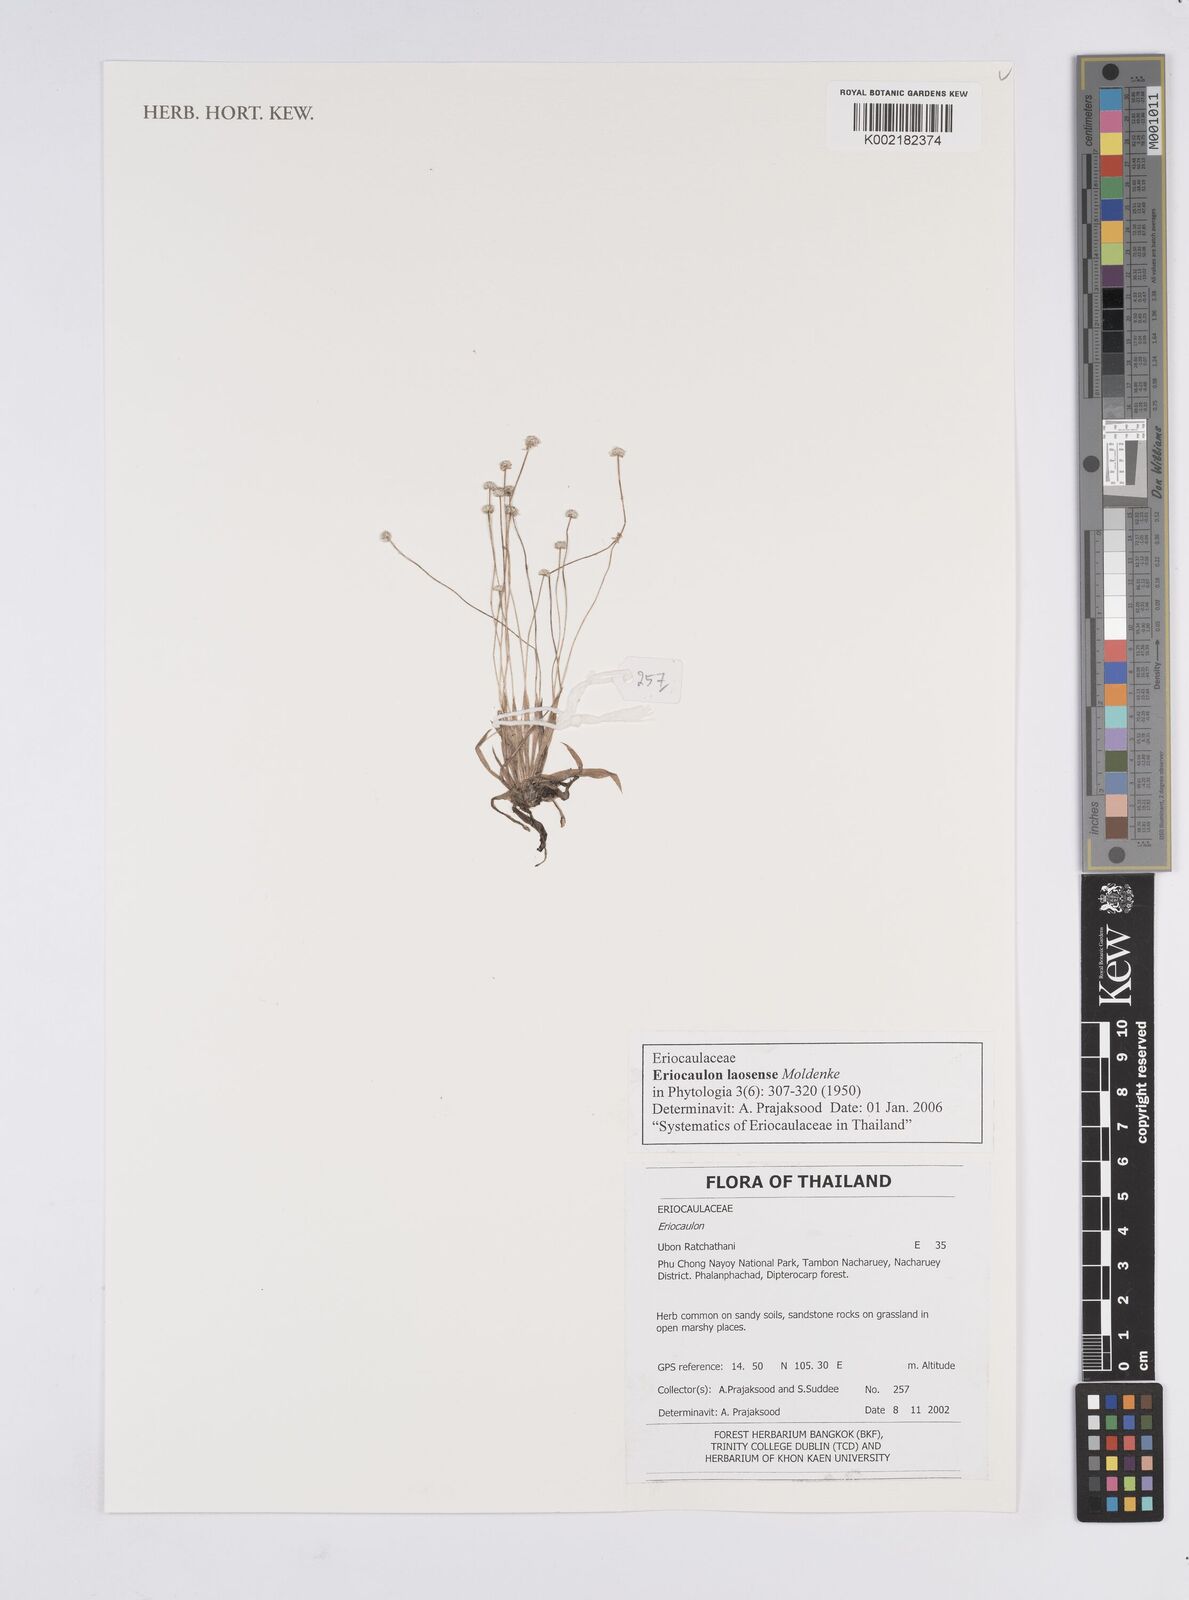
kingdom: Plantae
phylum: Tracheophyta
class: Liliopsida
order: Poales
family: Eriocaulaceae
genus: Eriocaulon
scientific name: Eriocaulon laosense
